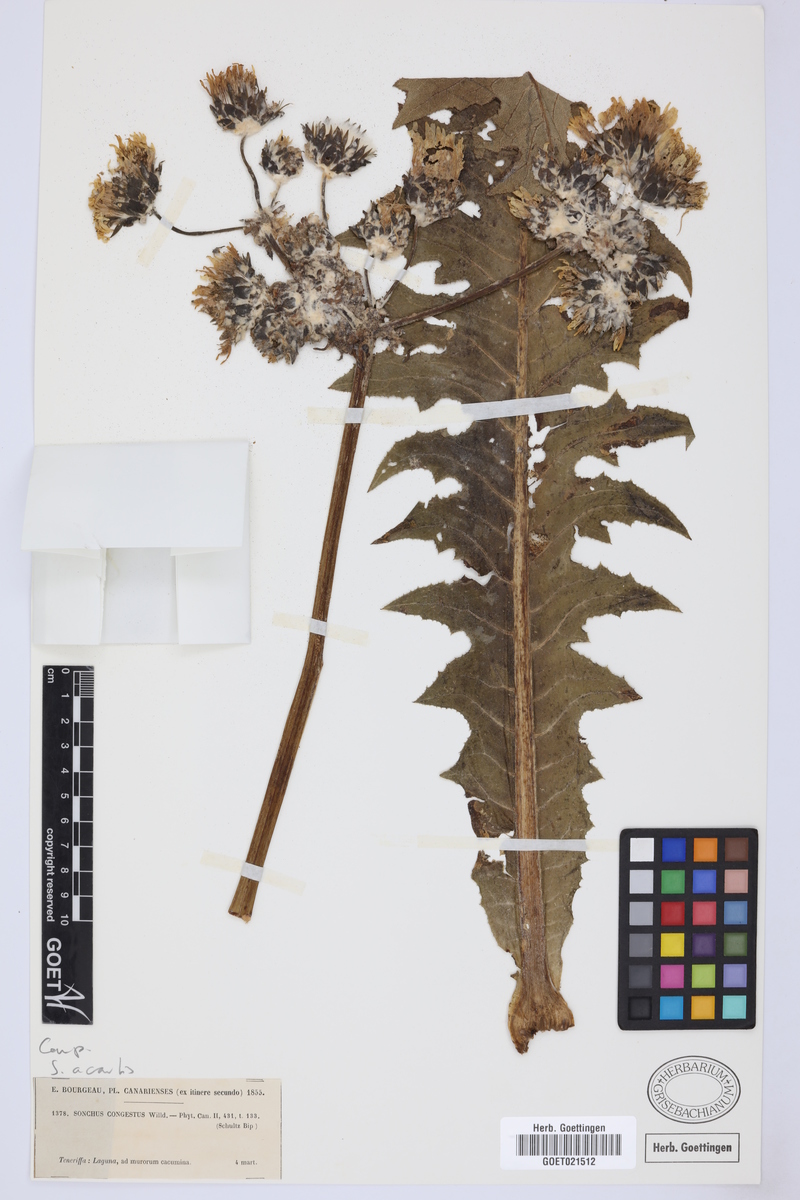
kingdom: Plantae
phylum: Tracheophyta
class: Magnoliopsida
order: Asterales
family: Asteraceae
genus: Sonchus
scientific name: Sonchus acaulis
